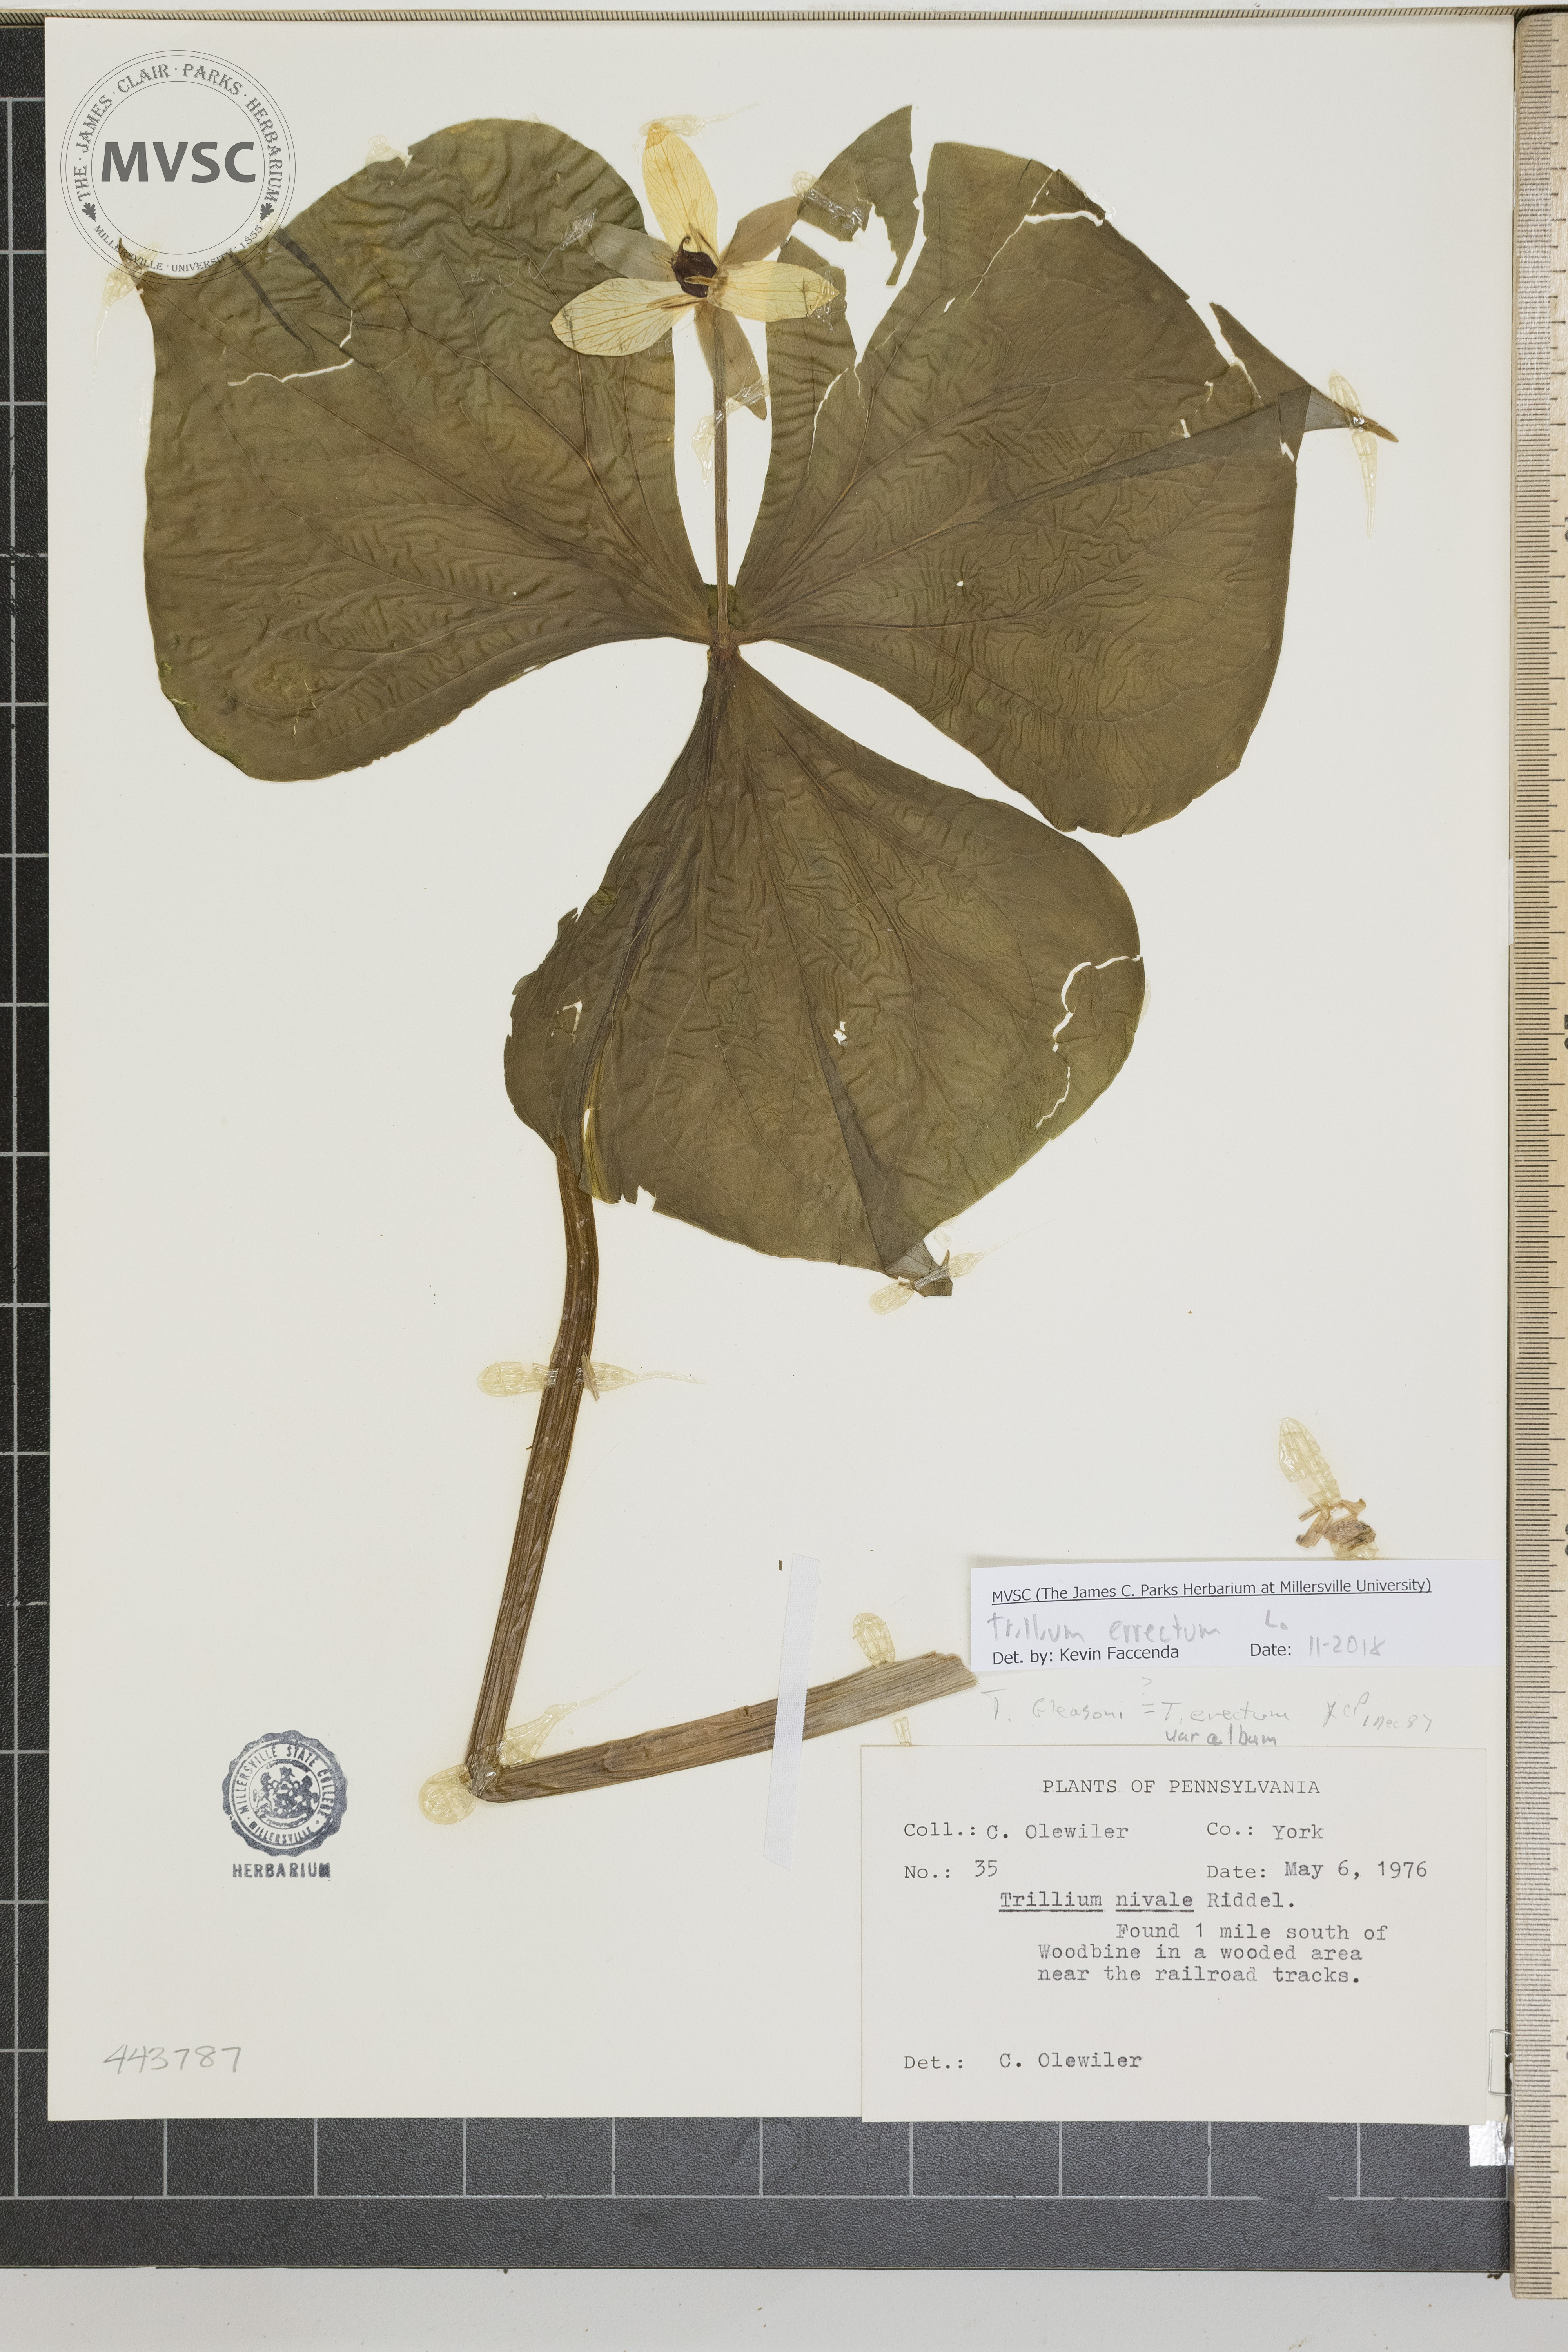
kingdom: Plantae
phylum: Tracheophyta
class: Liliopsida
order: Liliales
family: Melanthiaceae
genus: Trillium
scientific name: Trillium erectum
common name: Purple trillium
